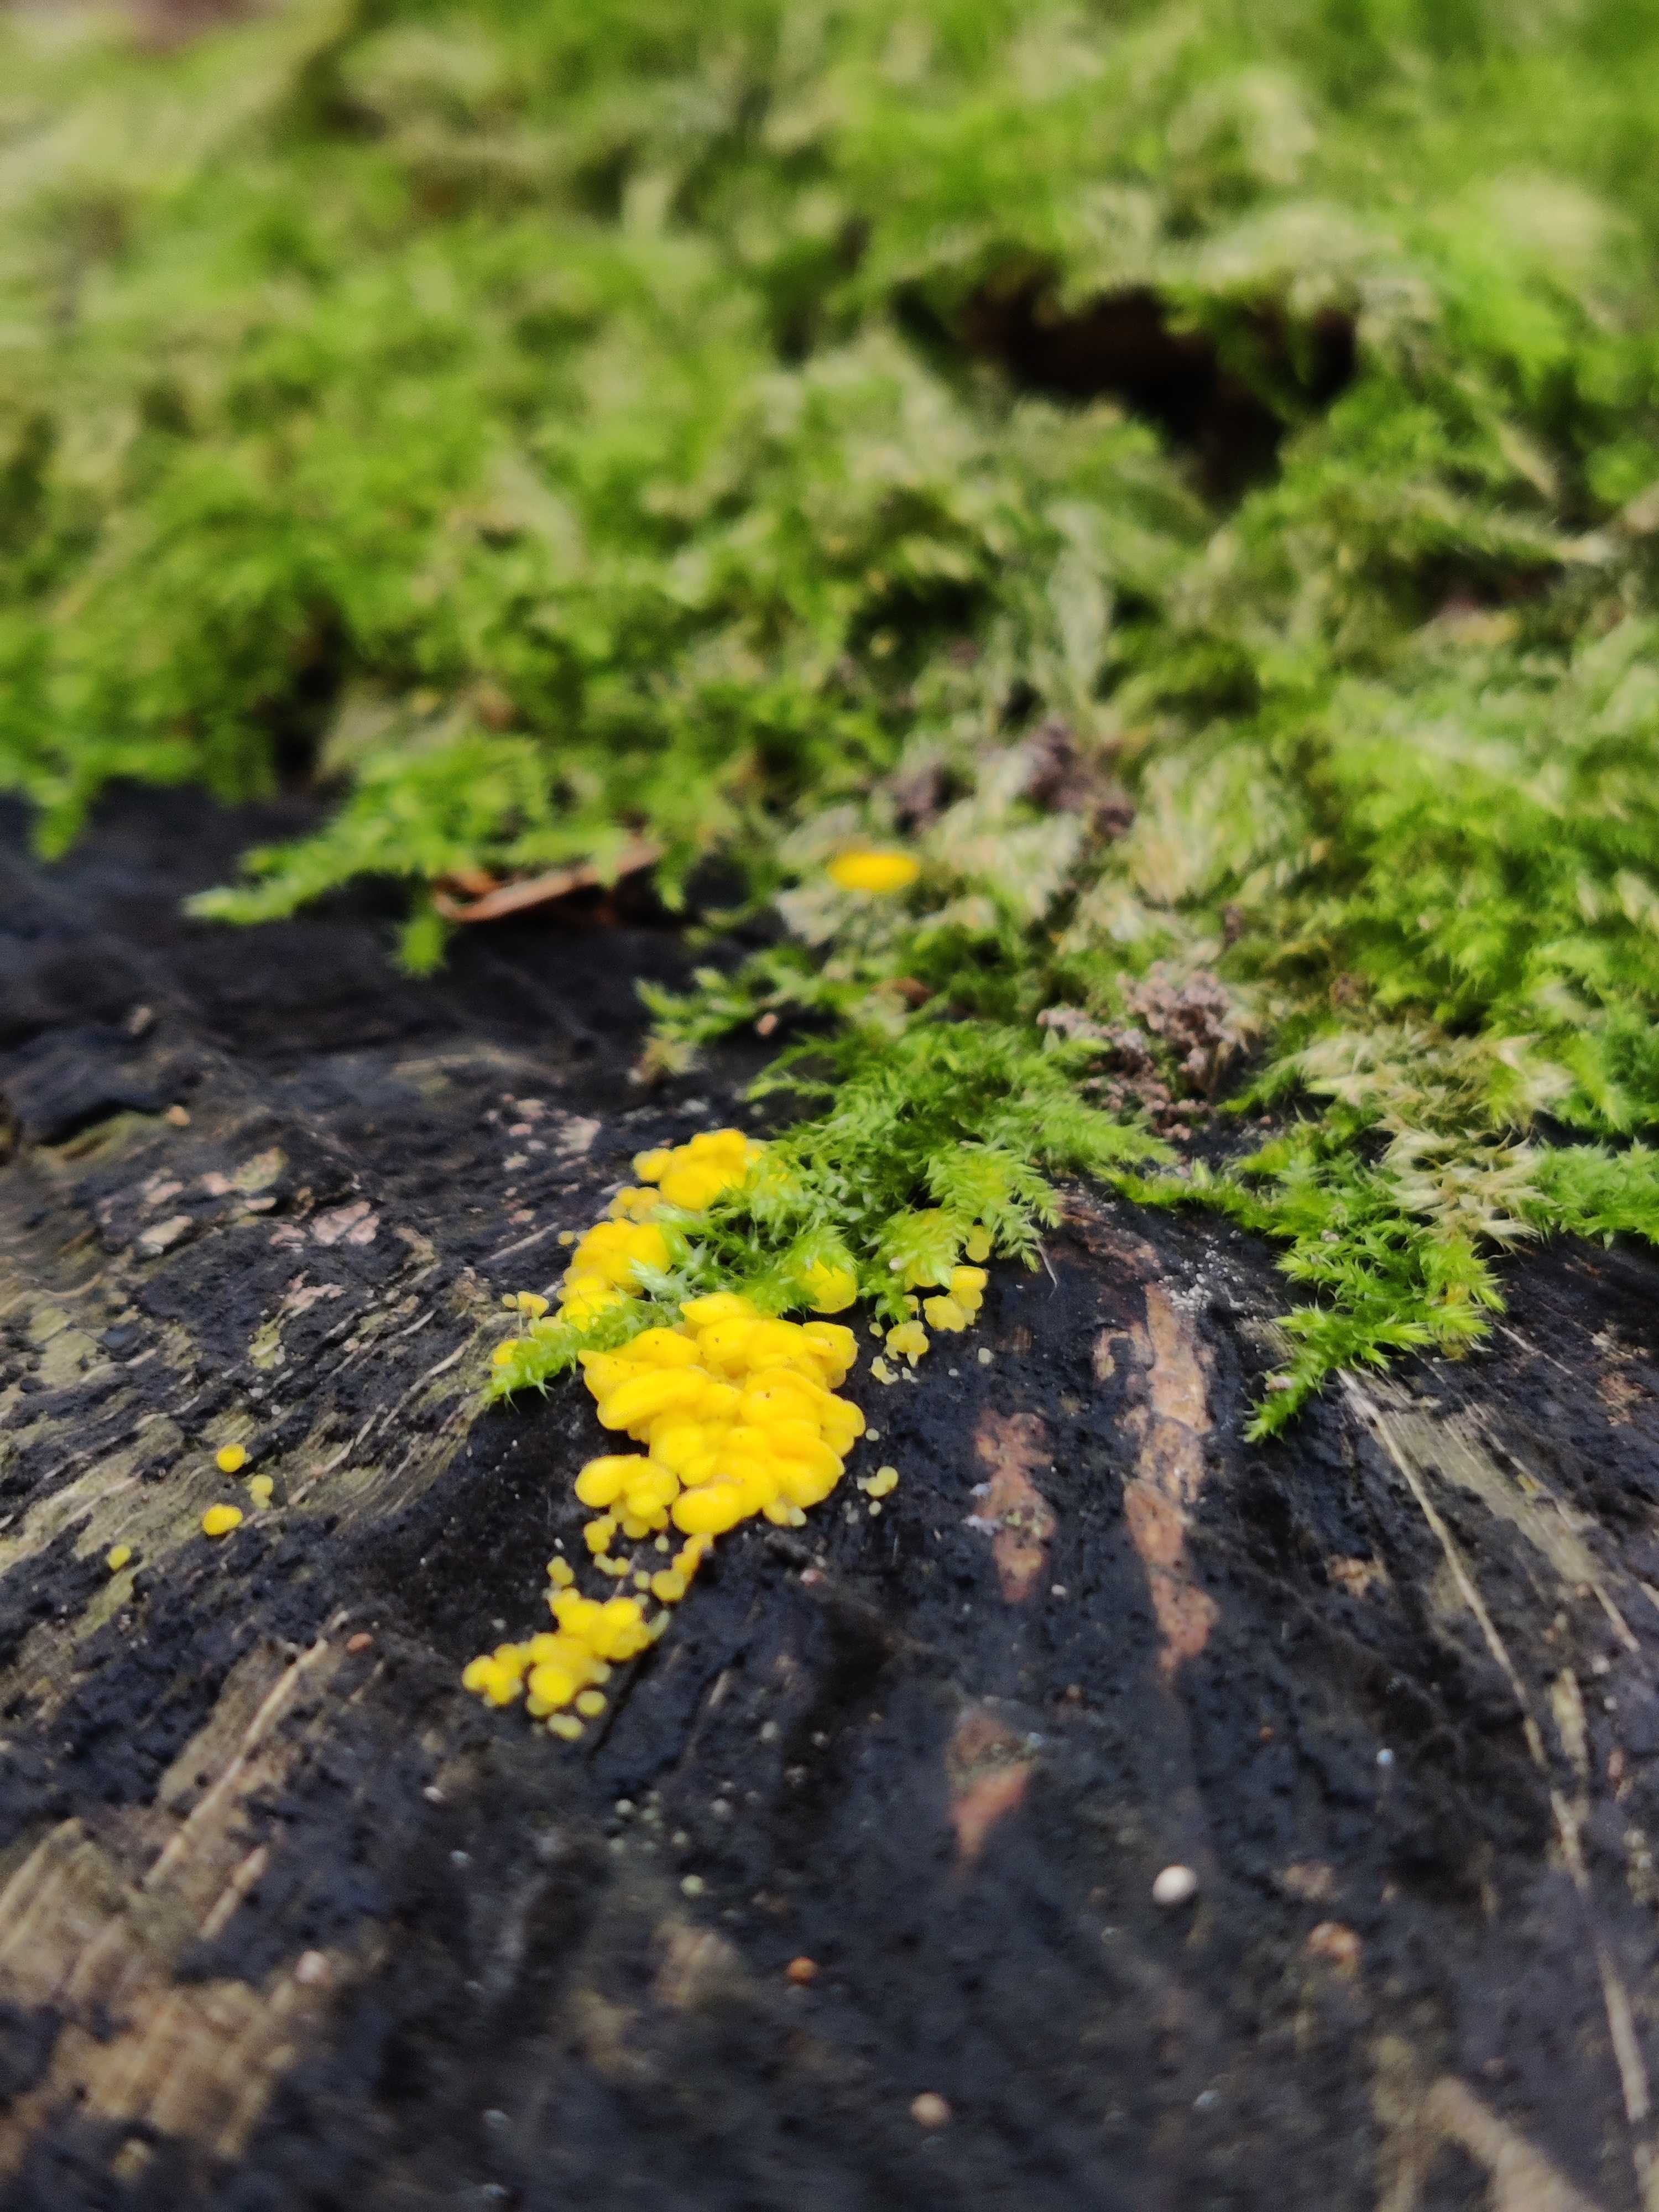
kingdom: Fungi
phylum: Ascomycota
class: Leotiomycetes
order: Helotiales
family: Pezizellaceae
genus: Calycina
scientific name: Calycina citrina
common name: almindelig gulskive
